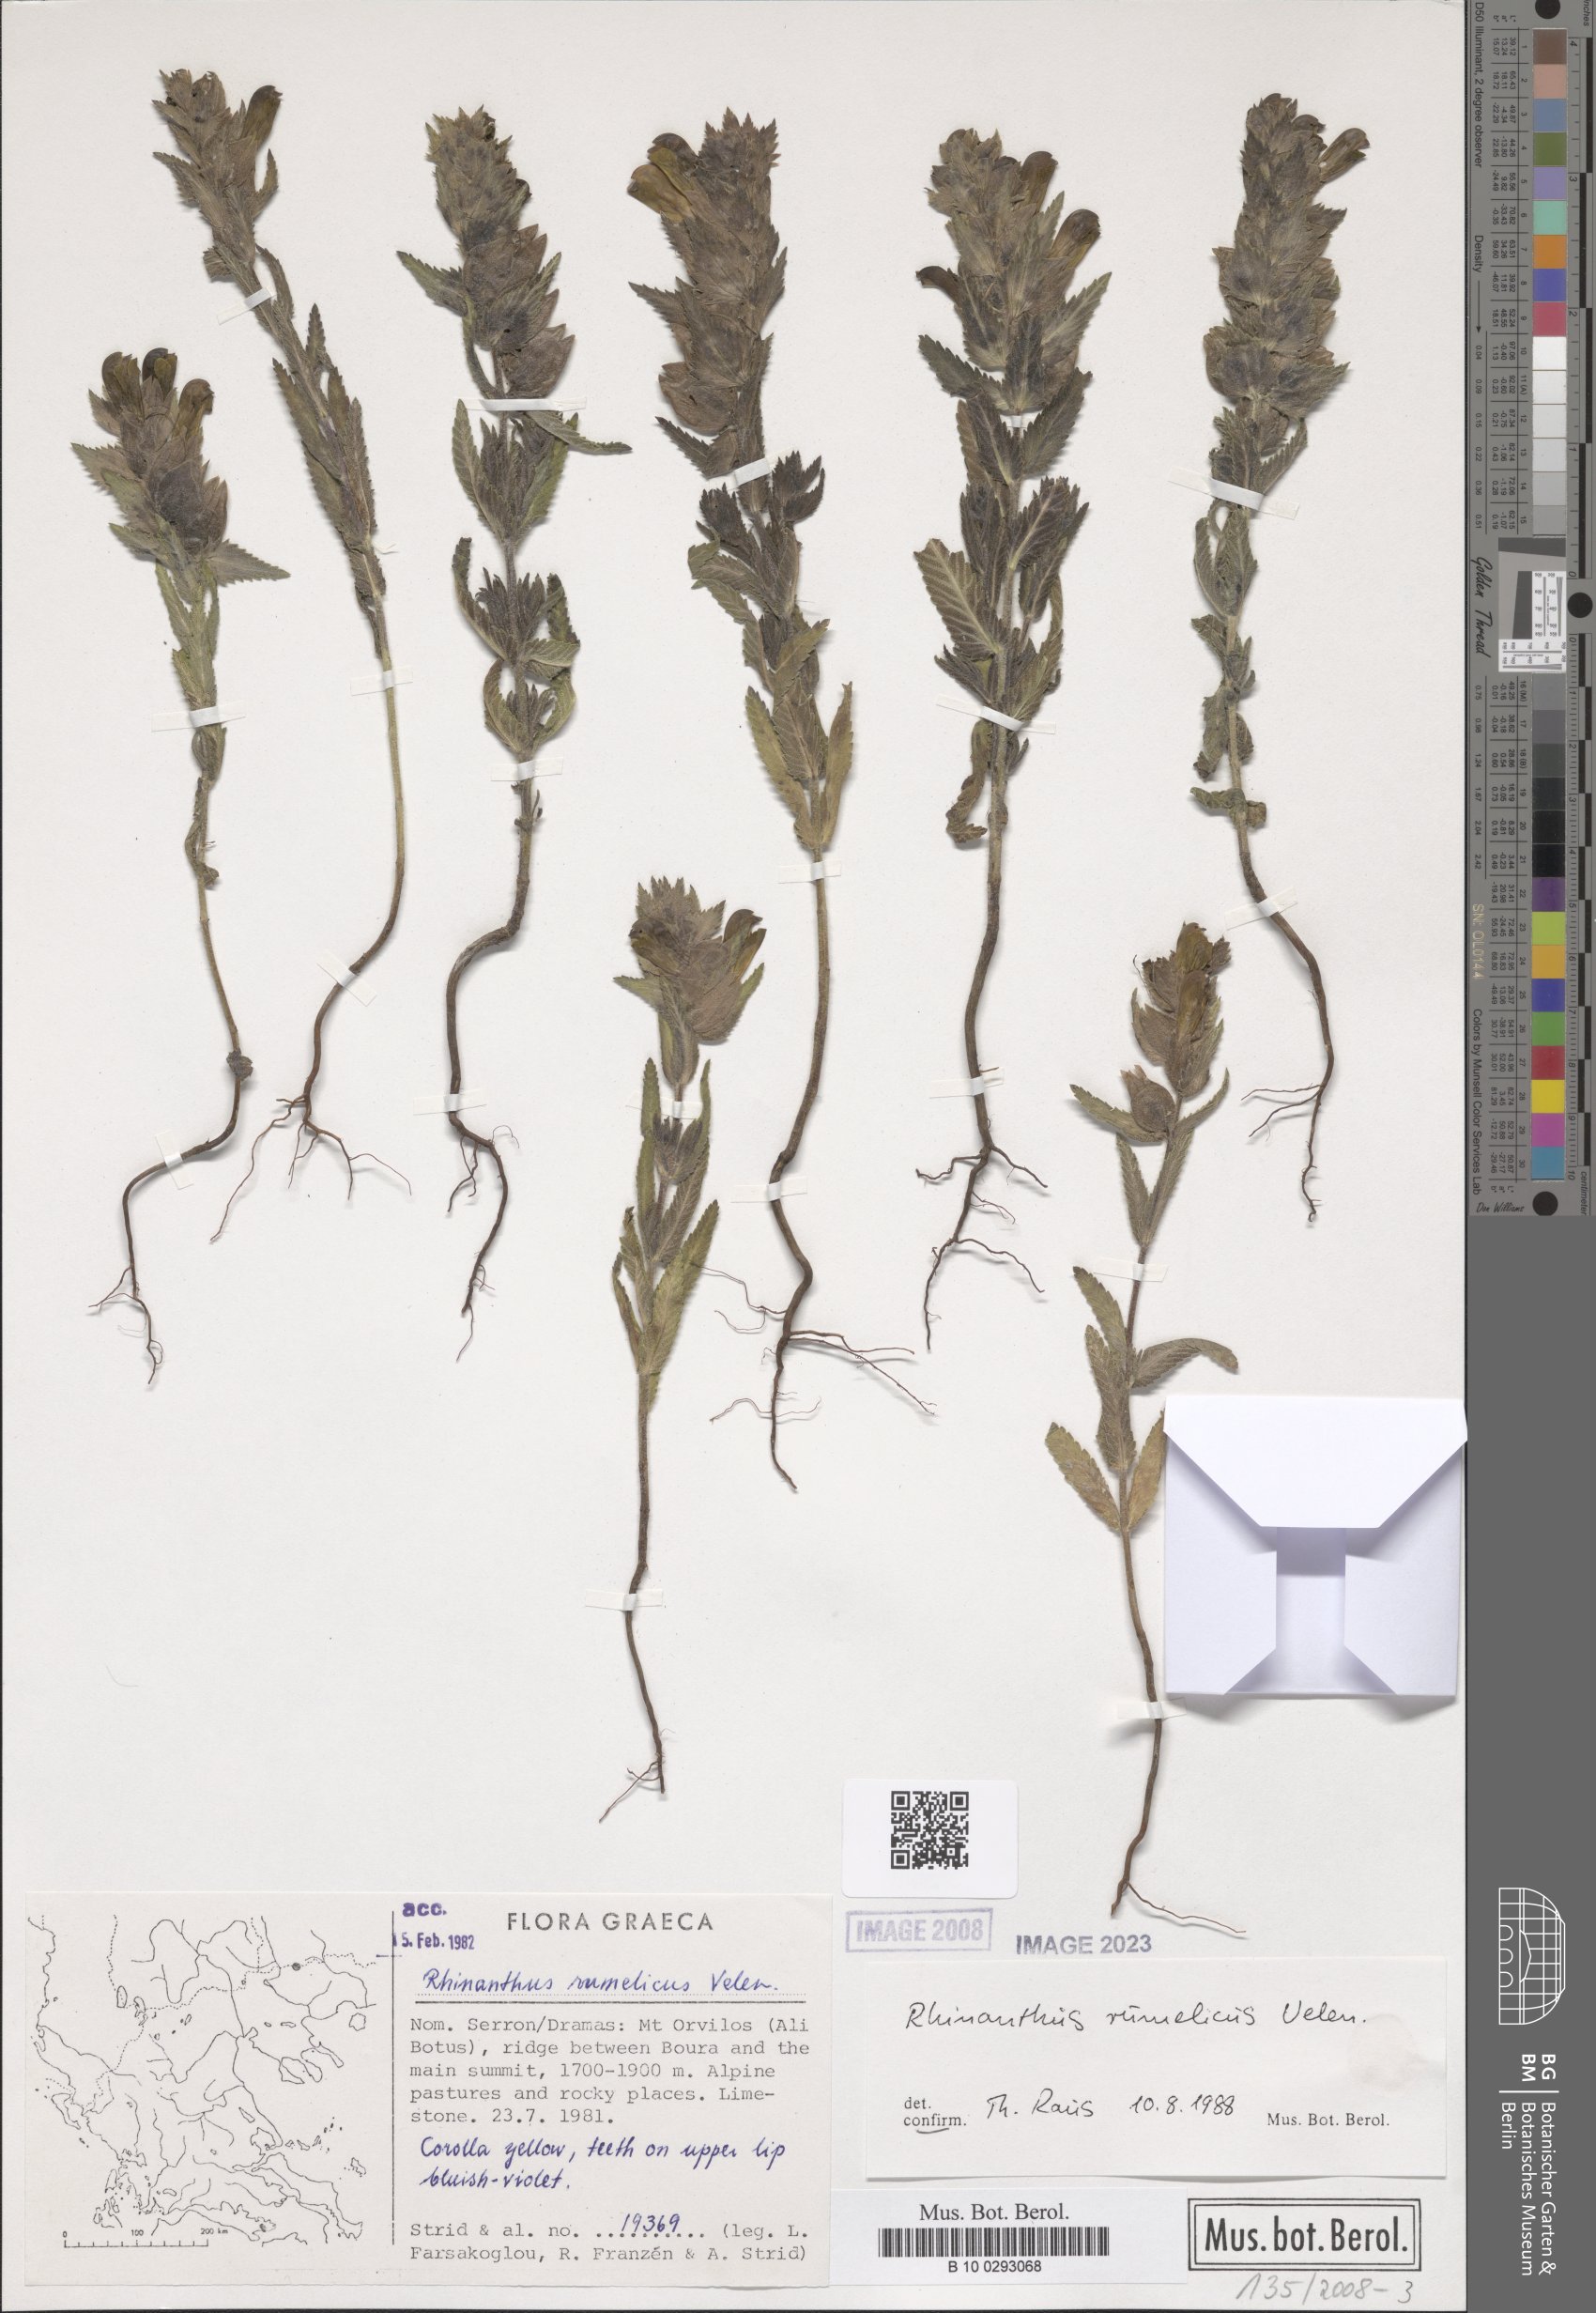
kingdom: Plantae
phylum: Tracheophyta
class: Magnoliopsida
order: Lamiales
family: Orobanchaceae
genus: Rhinanthus
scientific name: Rhinanthus rumelicus
